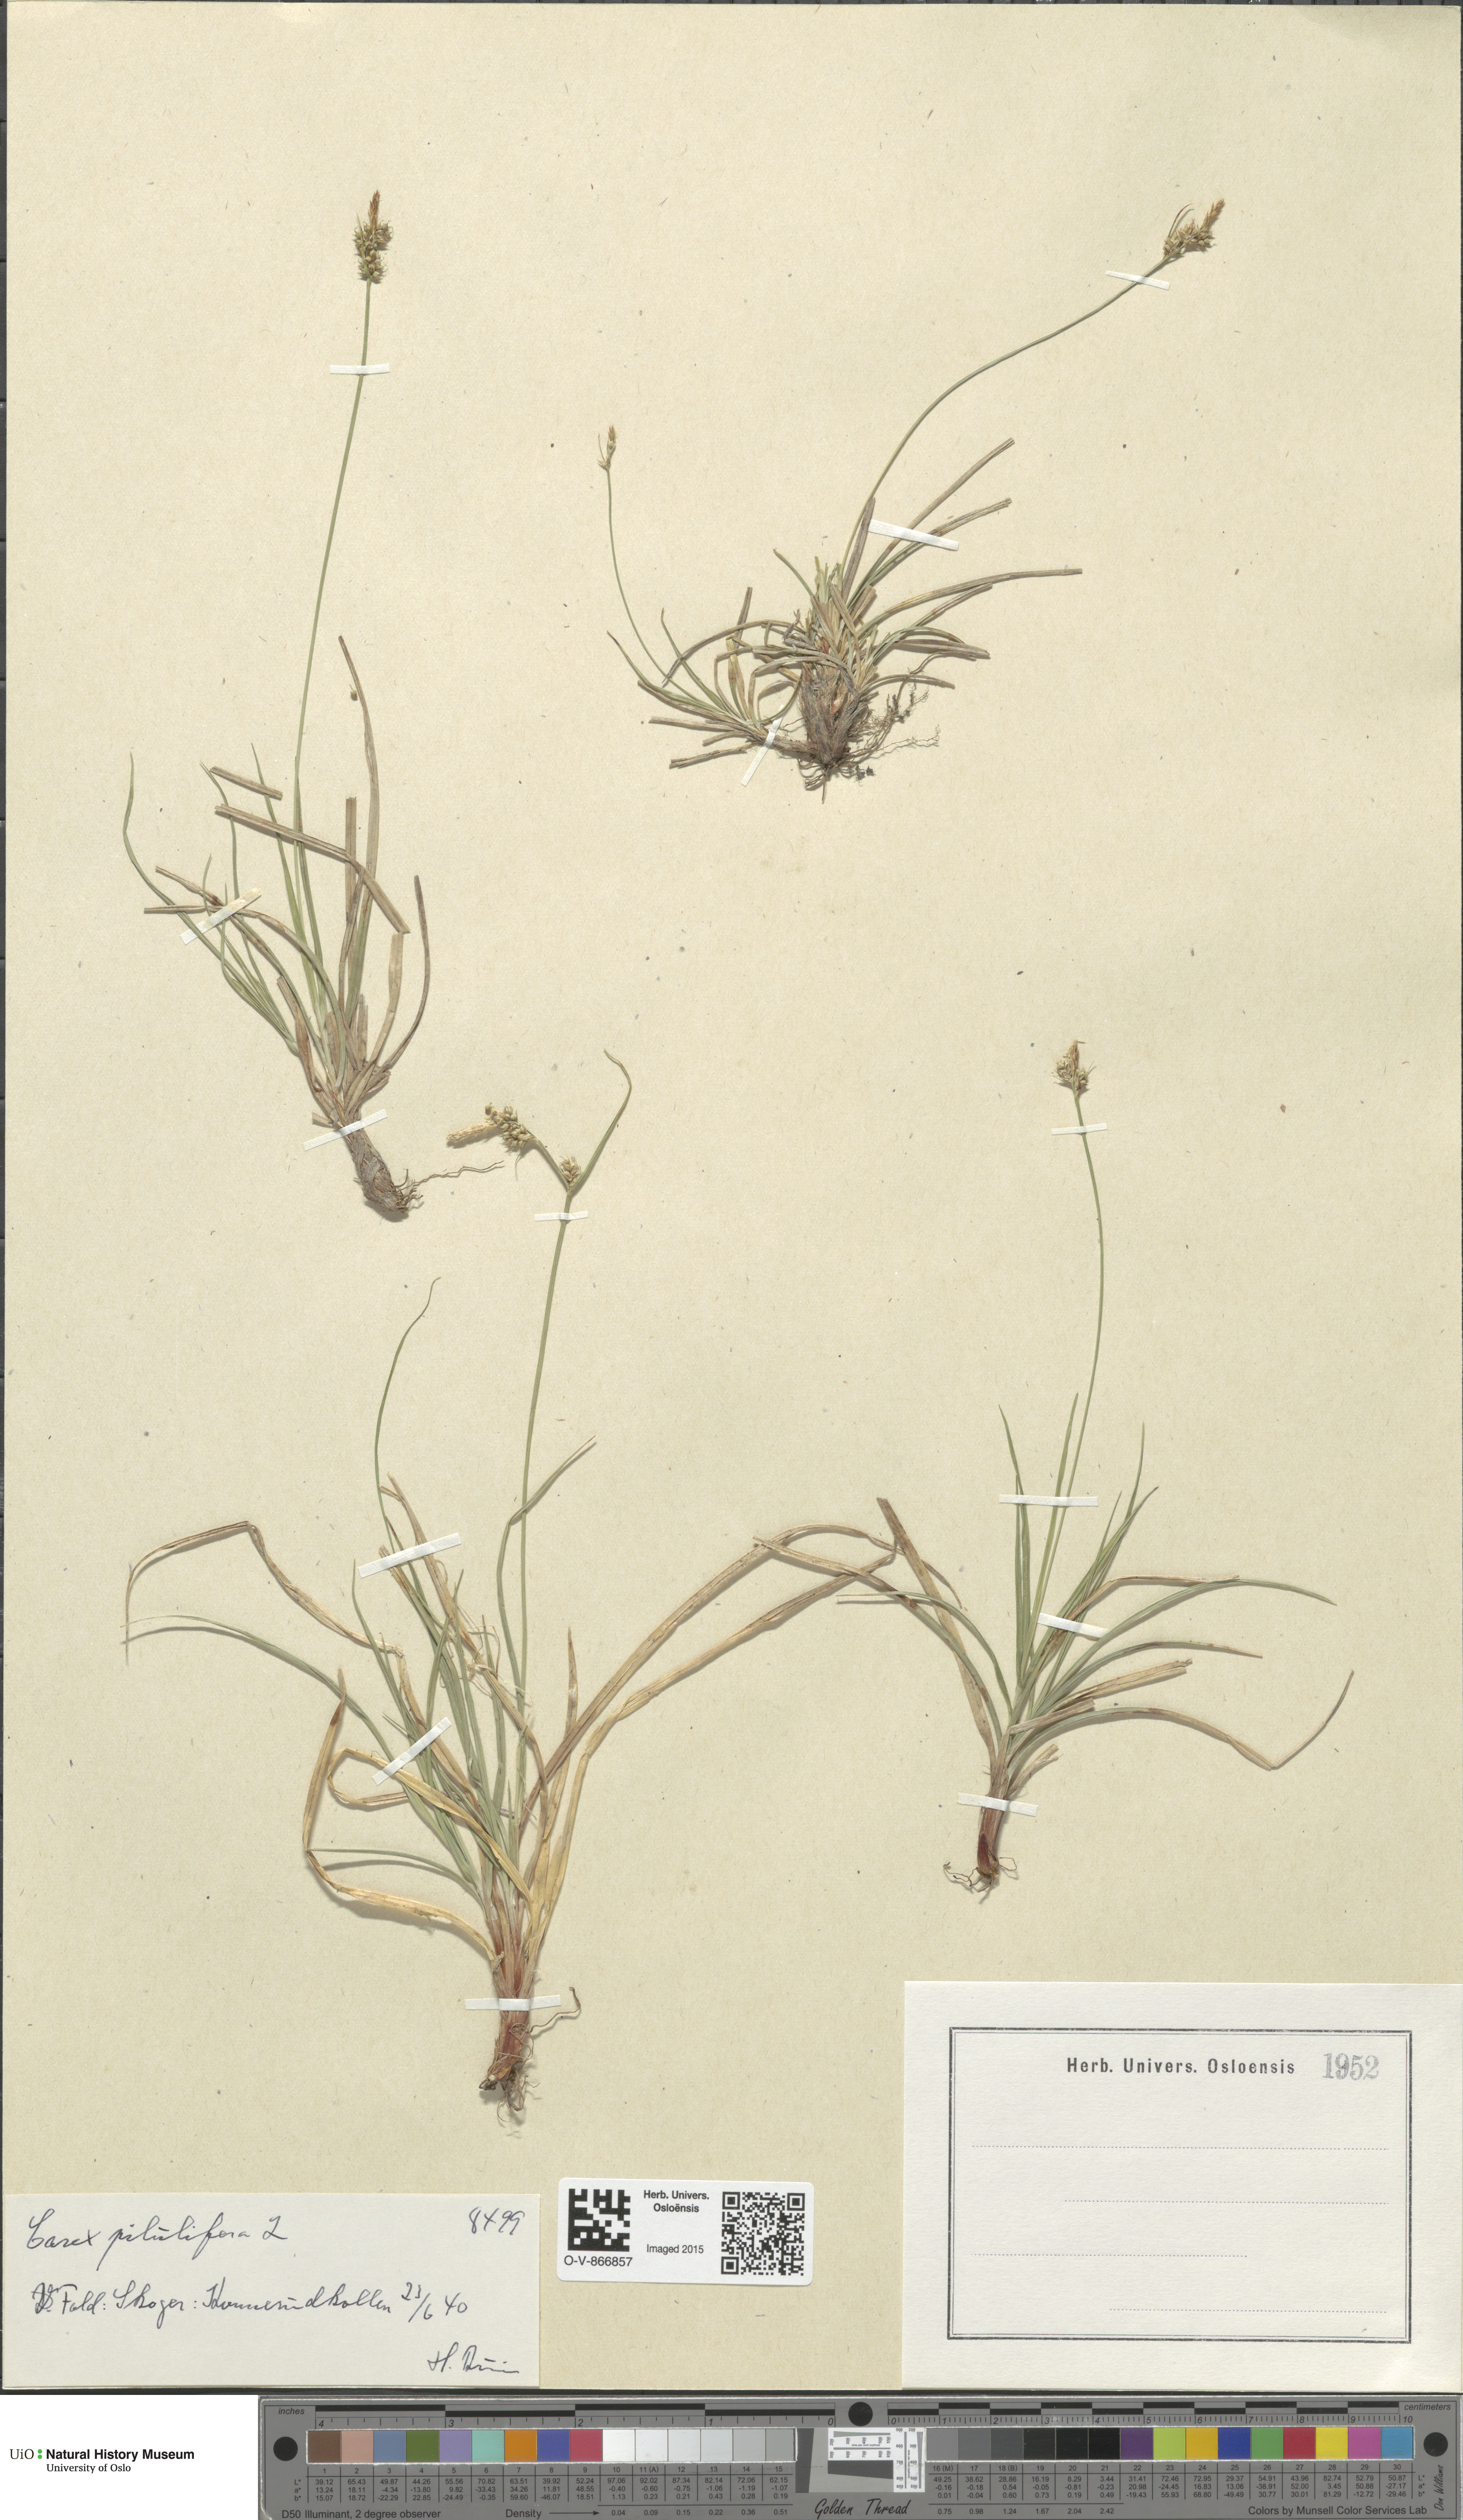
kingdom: Plantae
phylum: Tracheophyta
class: Liliopsida
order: Poales
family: Cyperaceae
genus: Carex
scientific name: Carex pilulifera
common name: Pill sedge
